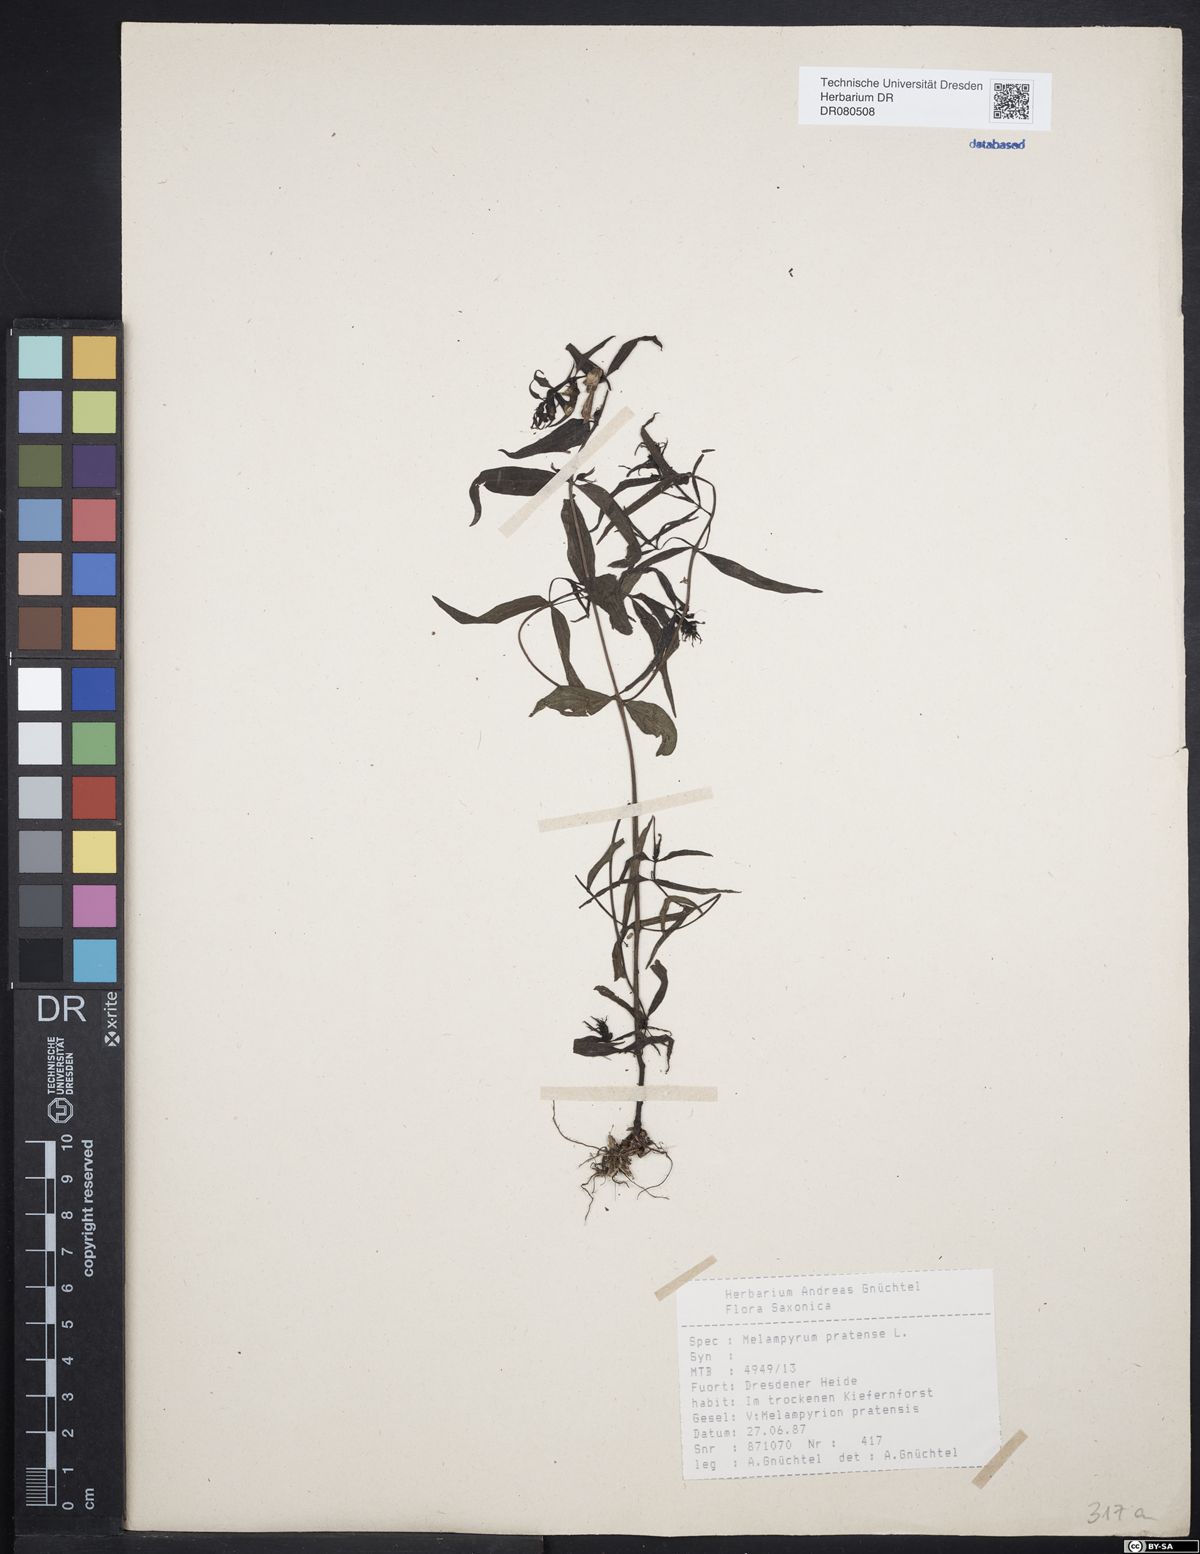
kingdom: Plantae
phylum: Tracheophyta
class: Magnoliopsida
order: Lamiales
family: Orobanchaceae
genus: Melampyrum
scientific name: Melampyrum pratense
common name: Common cow-wheat
